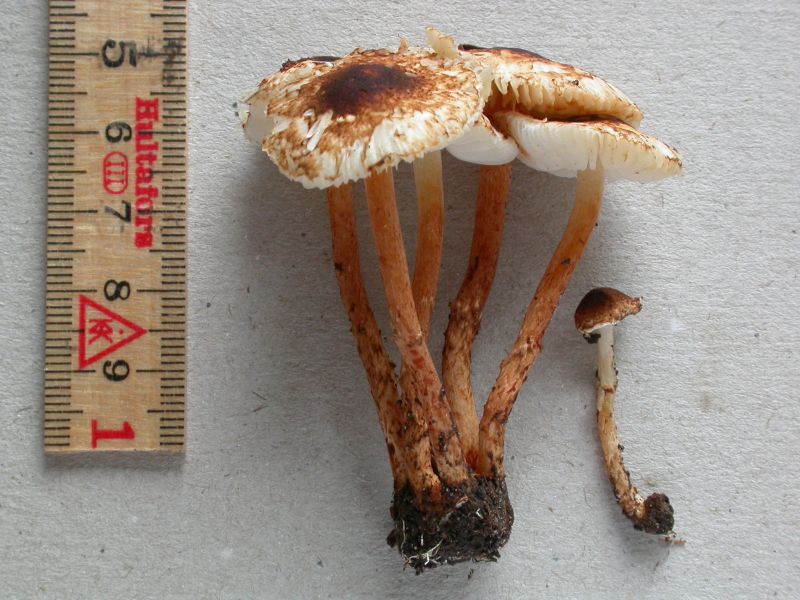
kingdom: Fungi
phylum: Basidiomycota
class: Agaricomycetes
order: Agaricales
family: Agaricaceae
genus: Lepiota
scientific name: Lepiota castanea
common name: kastaniebrun parasolhat
